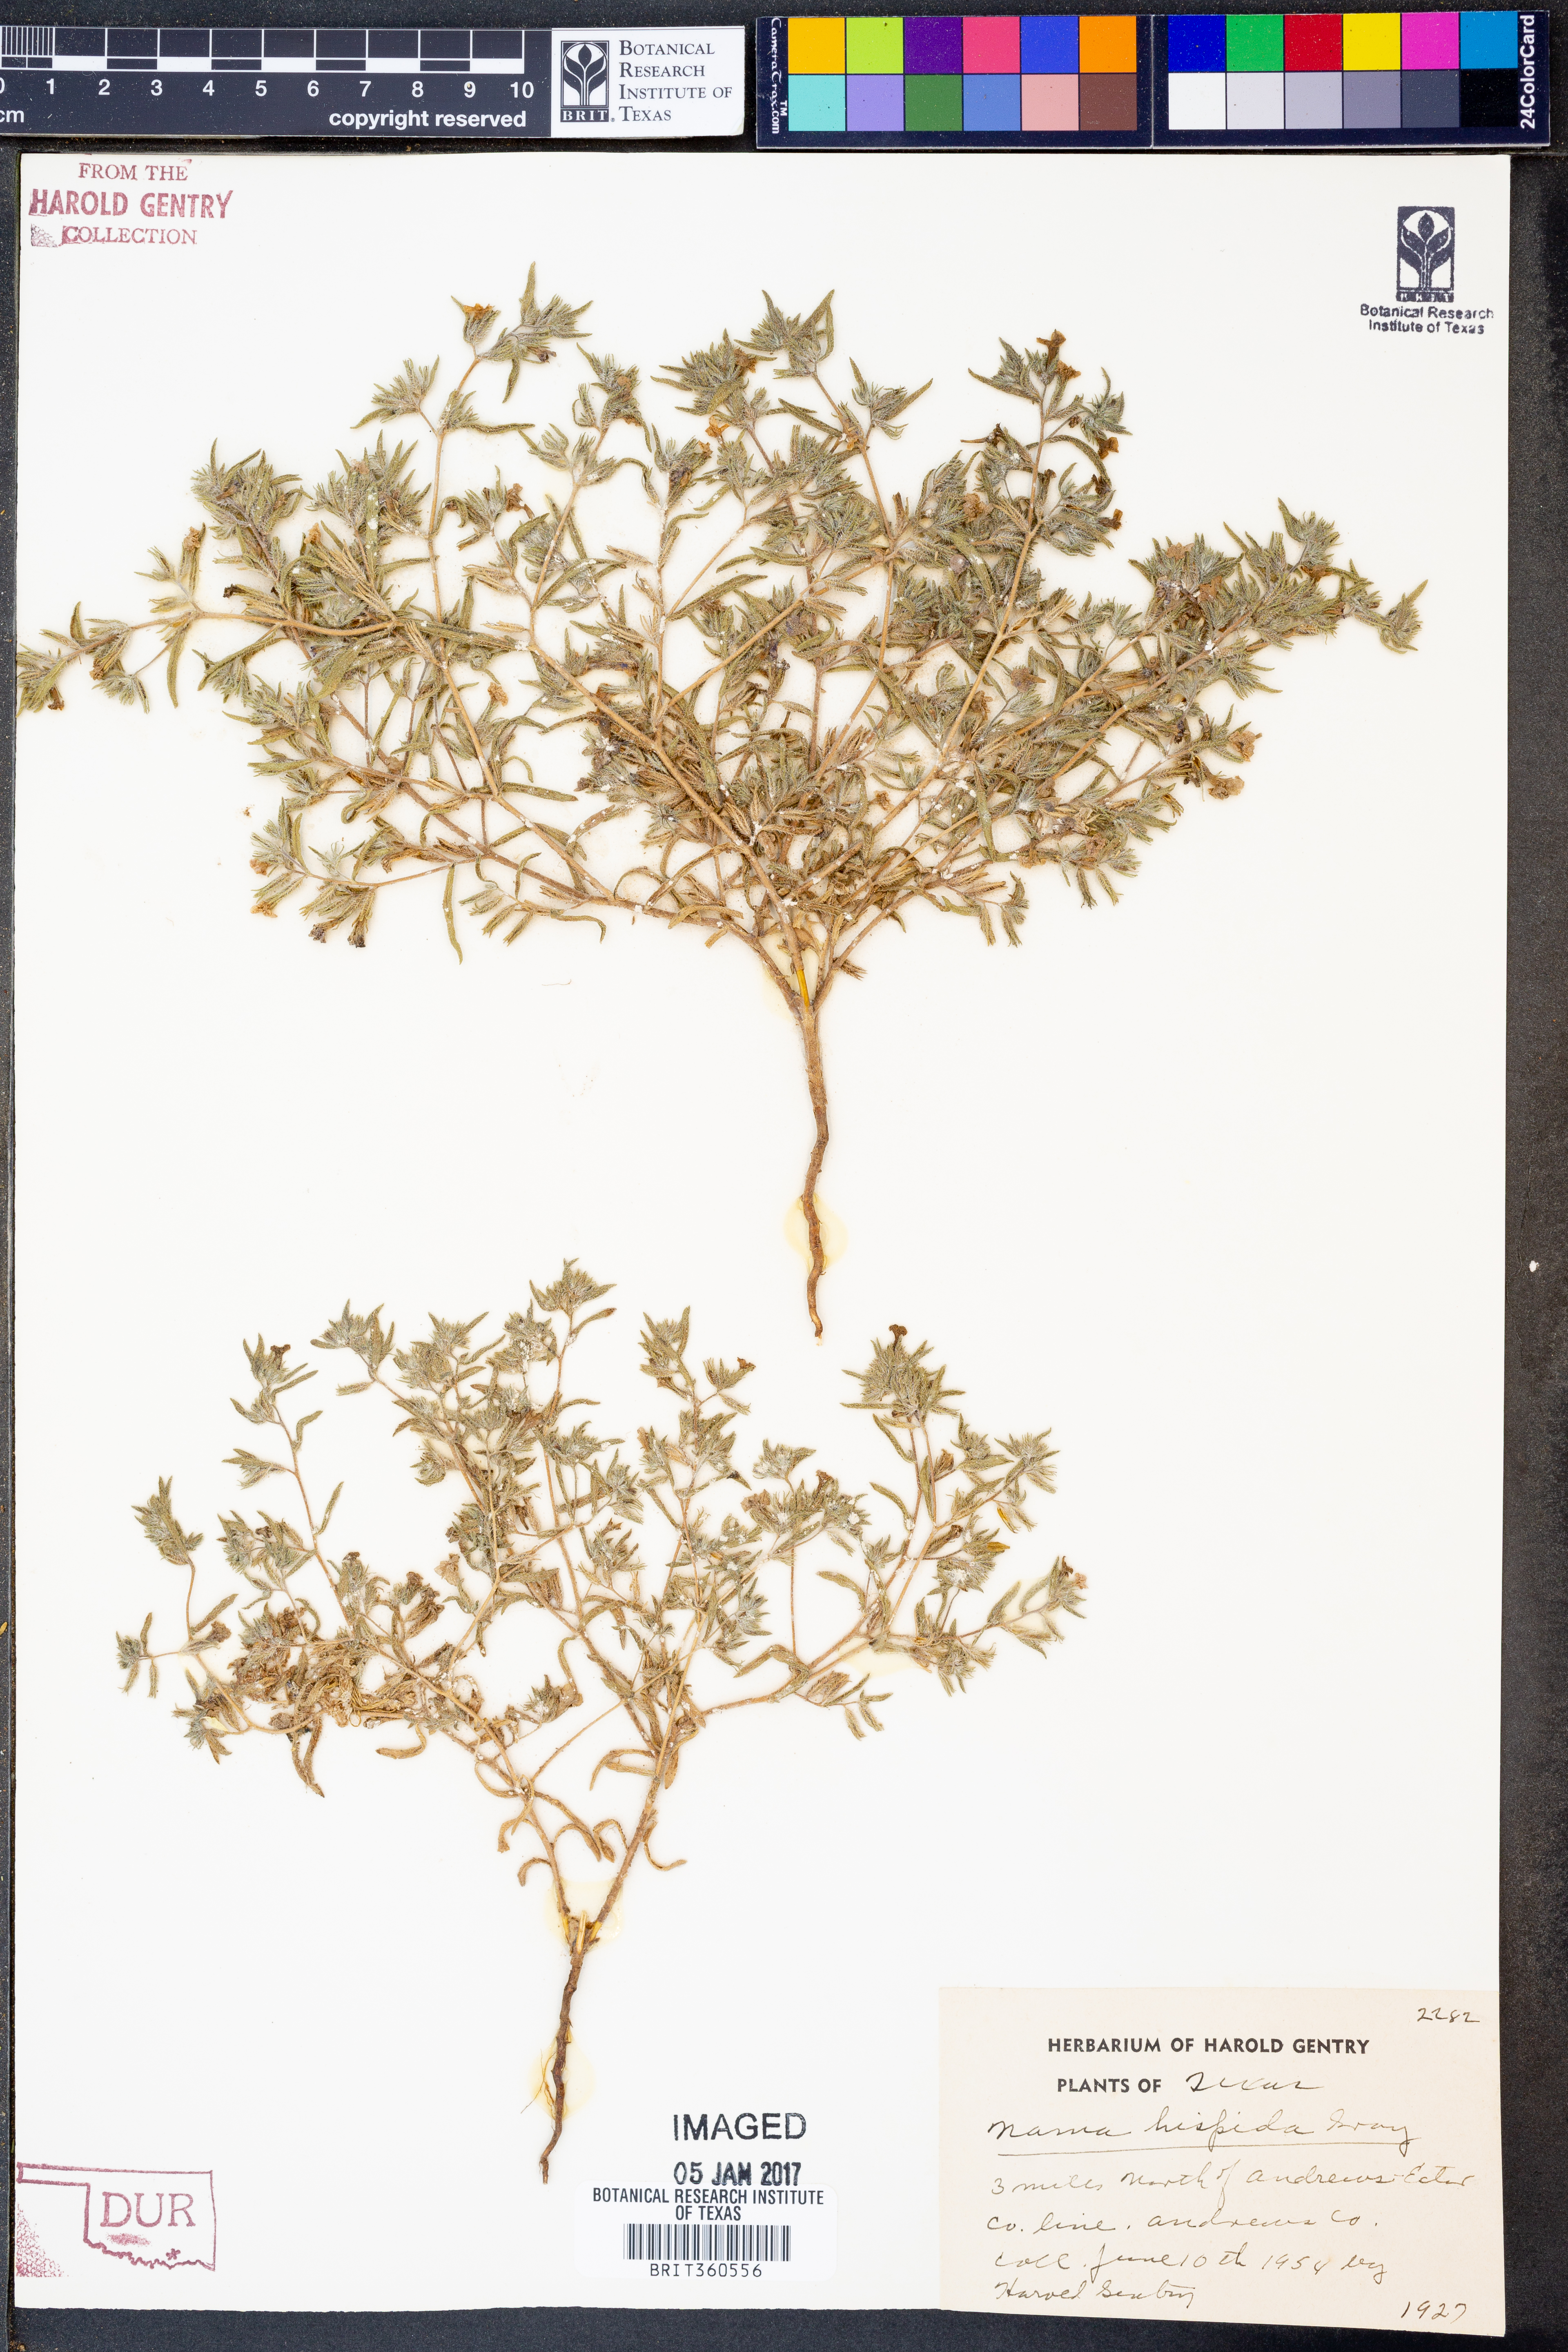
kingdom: Plantae
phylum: Tracheophyta
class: Magnoliopsida
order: Boraginales
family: Namaceae
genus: Nama
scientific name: Nama hispida
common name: Bristly nama
